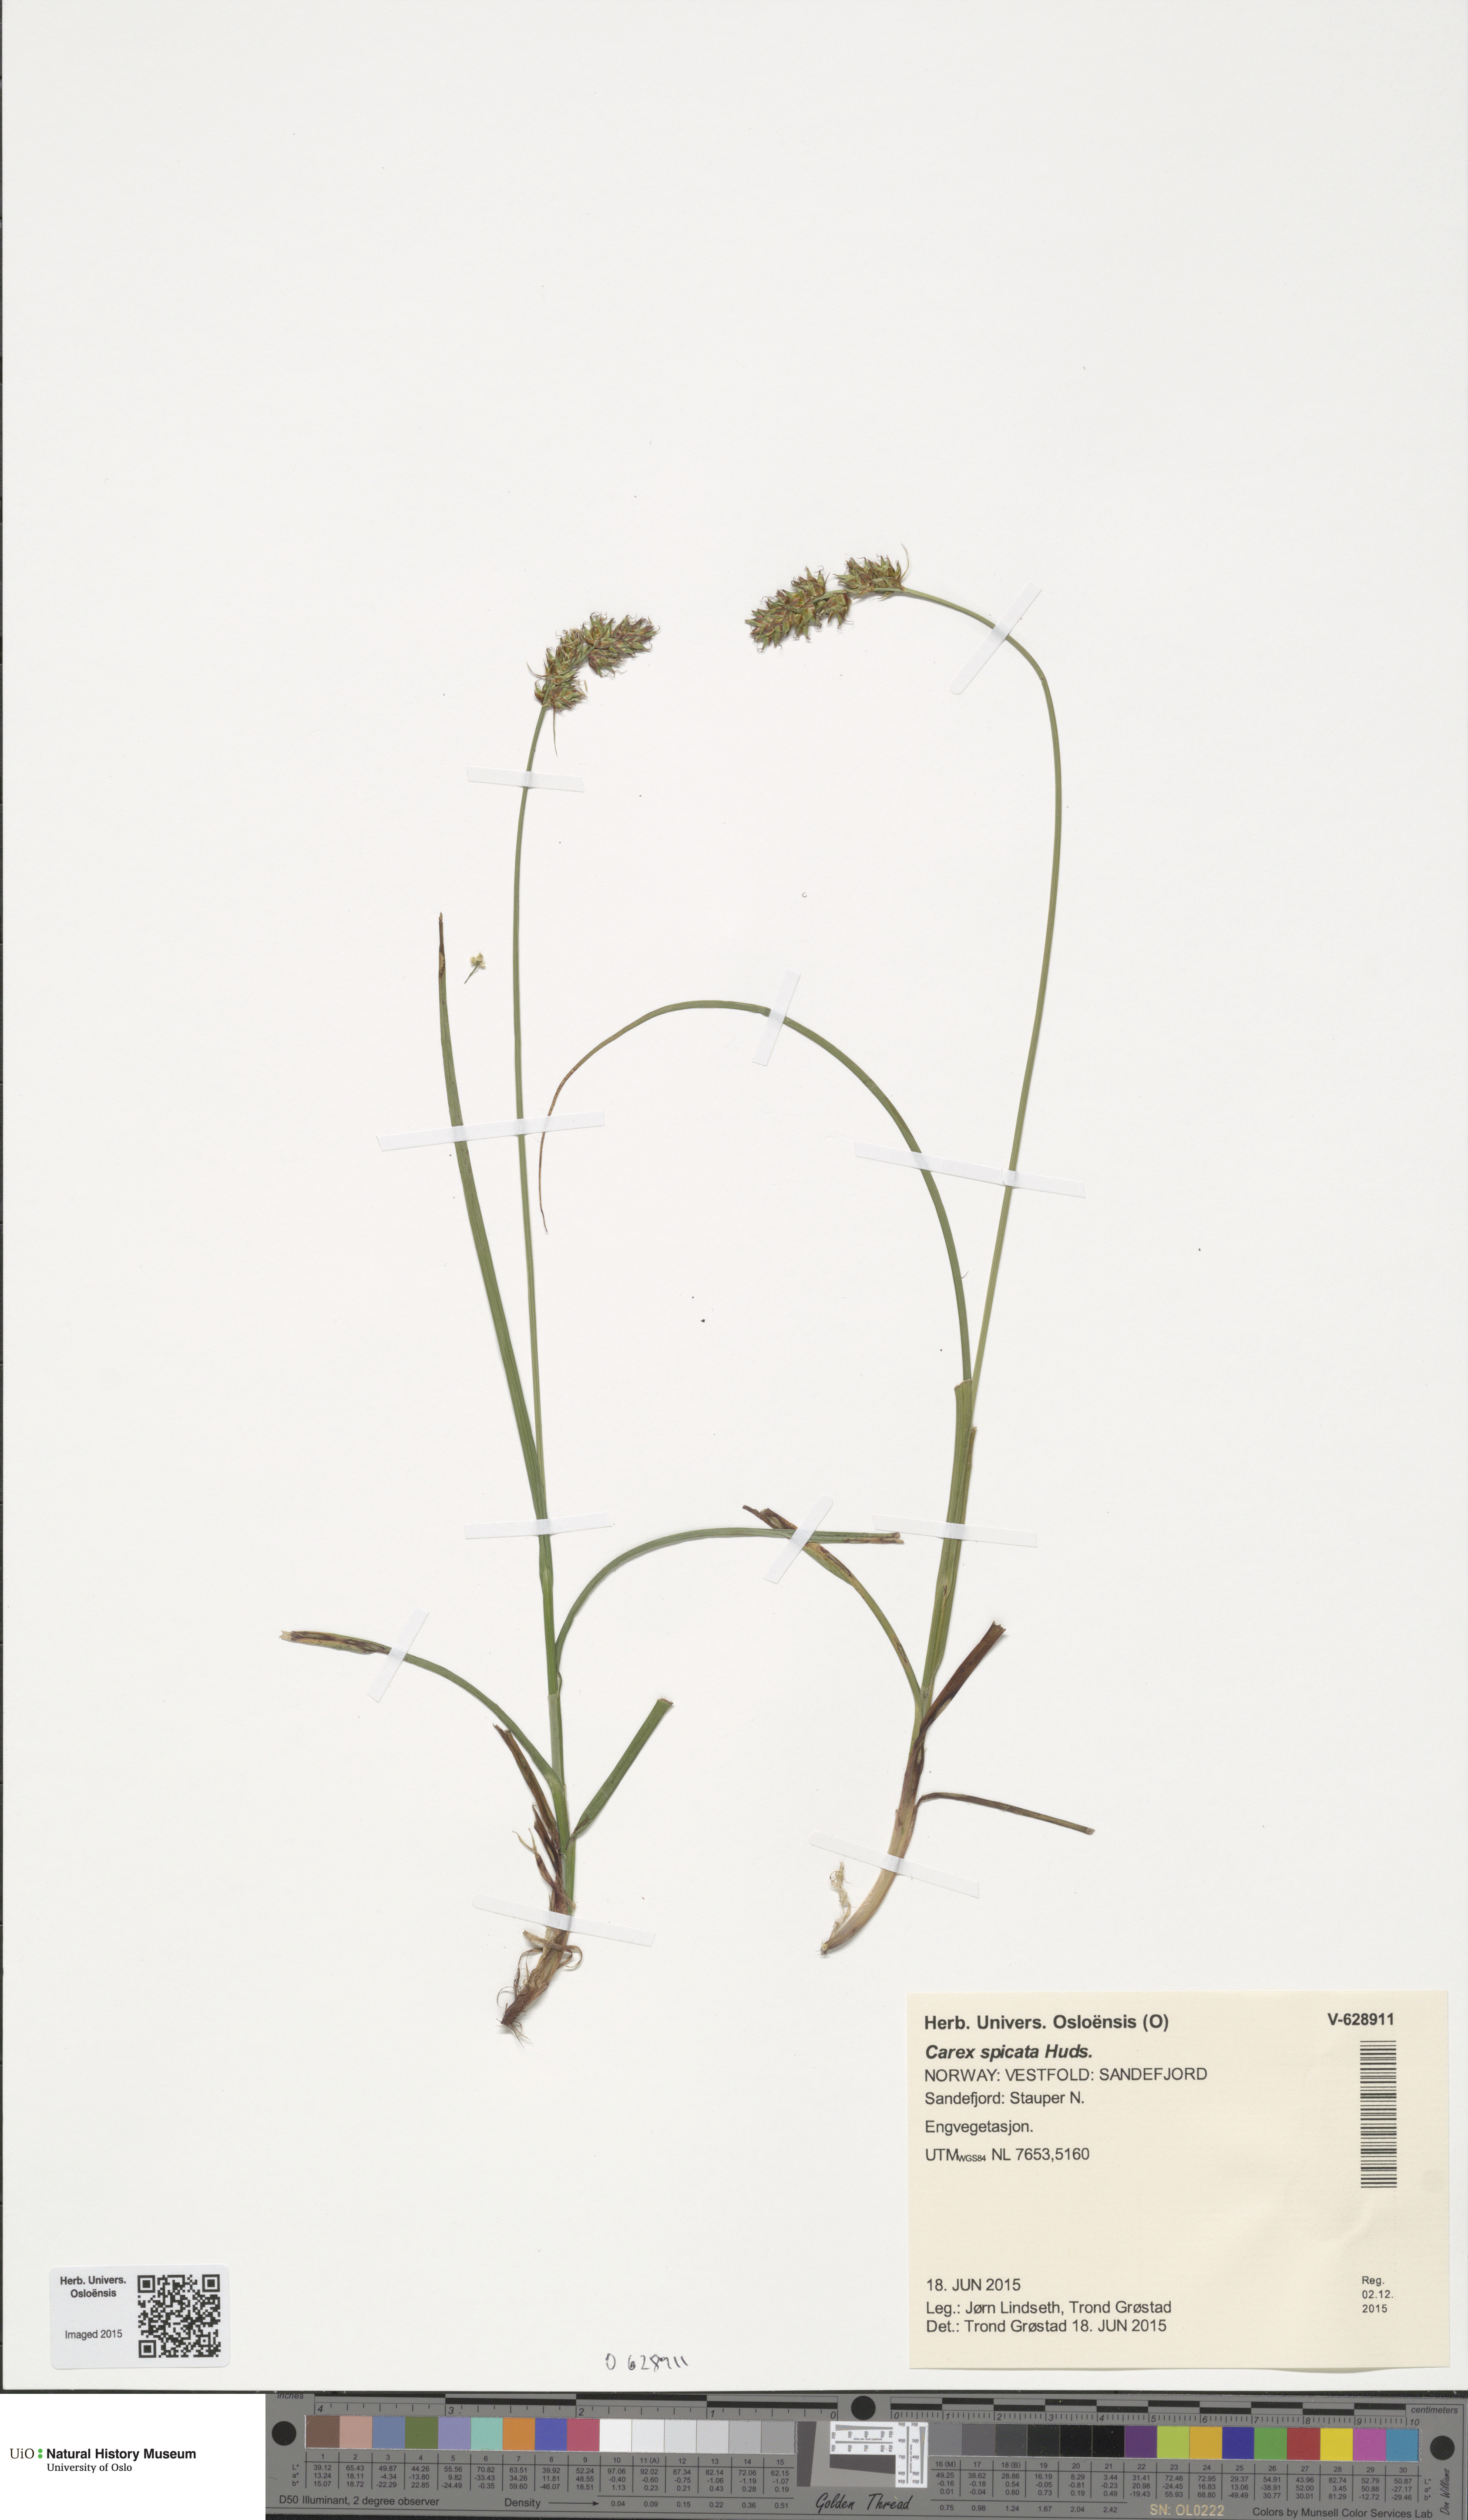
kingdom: Plantae
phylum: Tracheophyta
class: Liliopsida
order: Poales
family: Cyperaceae
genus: Carex
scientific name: Carex spicata
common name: Spiked sedge
